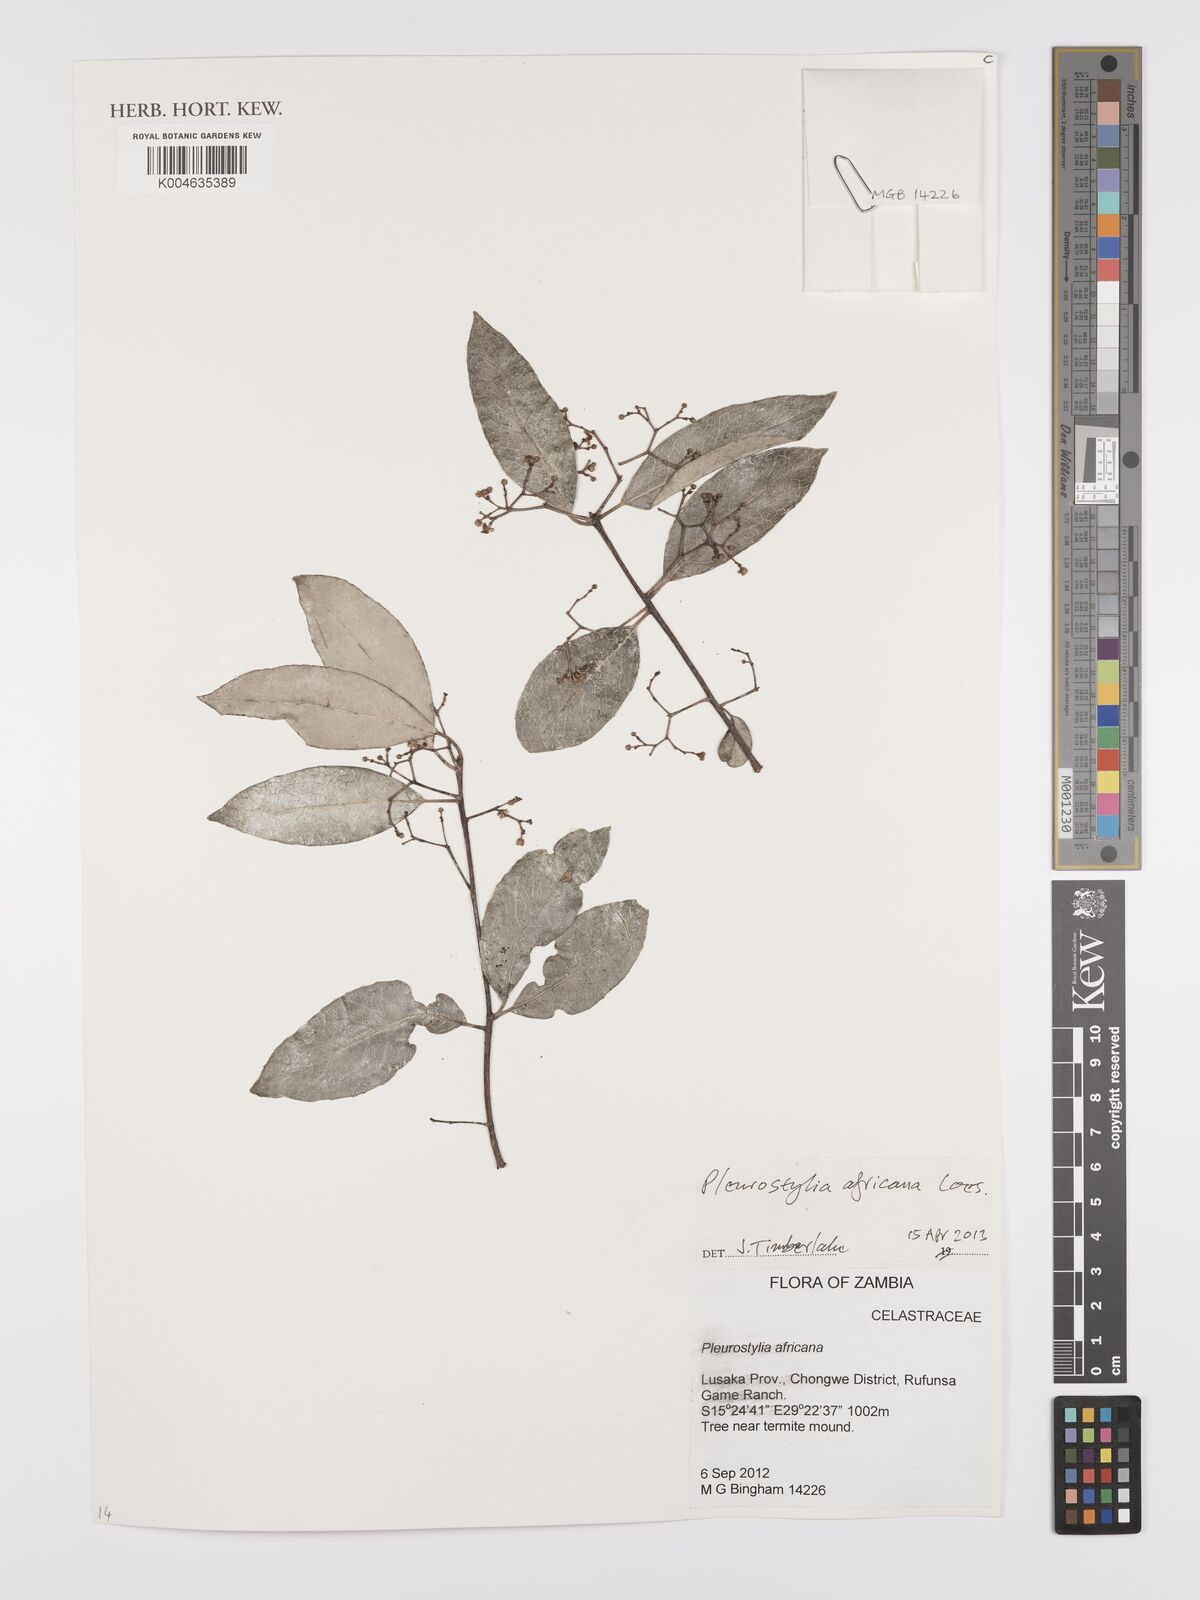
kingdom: Plantae
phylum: Tracheophyta
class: Magnoliopsida
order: Celastrales
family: Celastraceae
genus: Pleurostylia
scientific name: Pleurostylia africana
